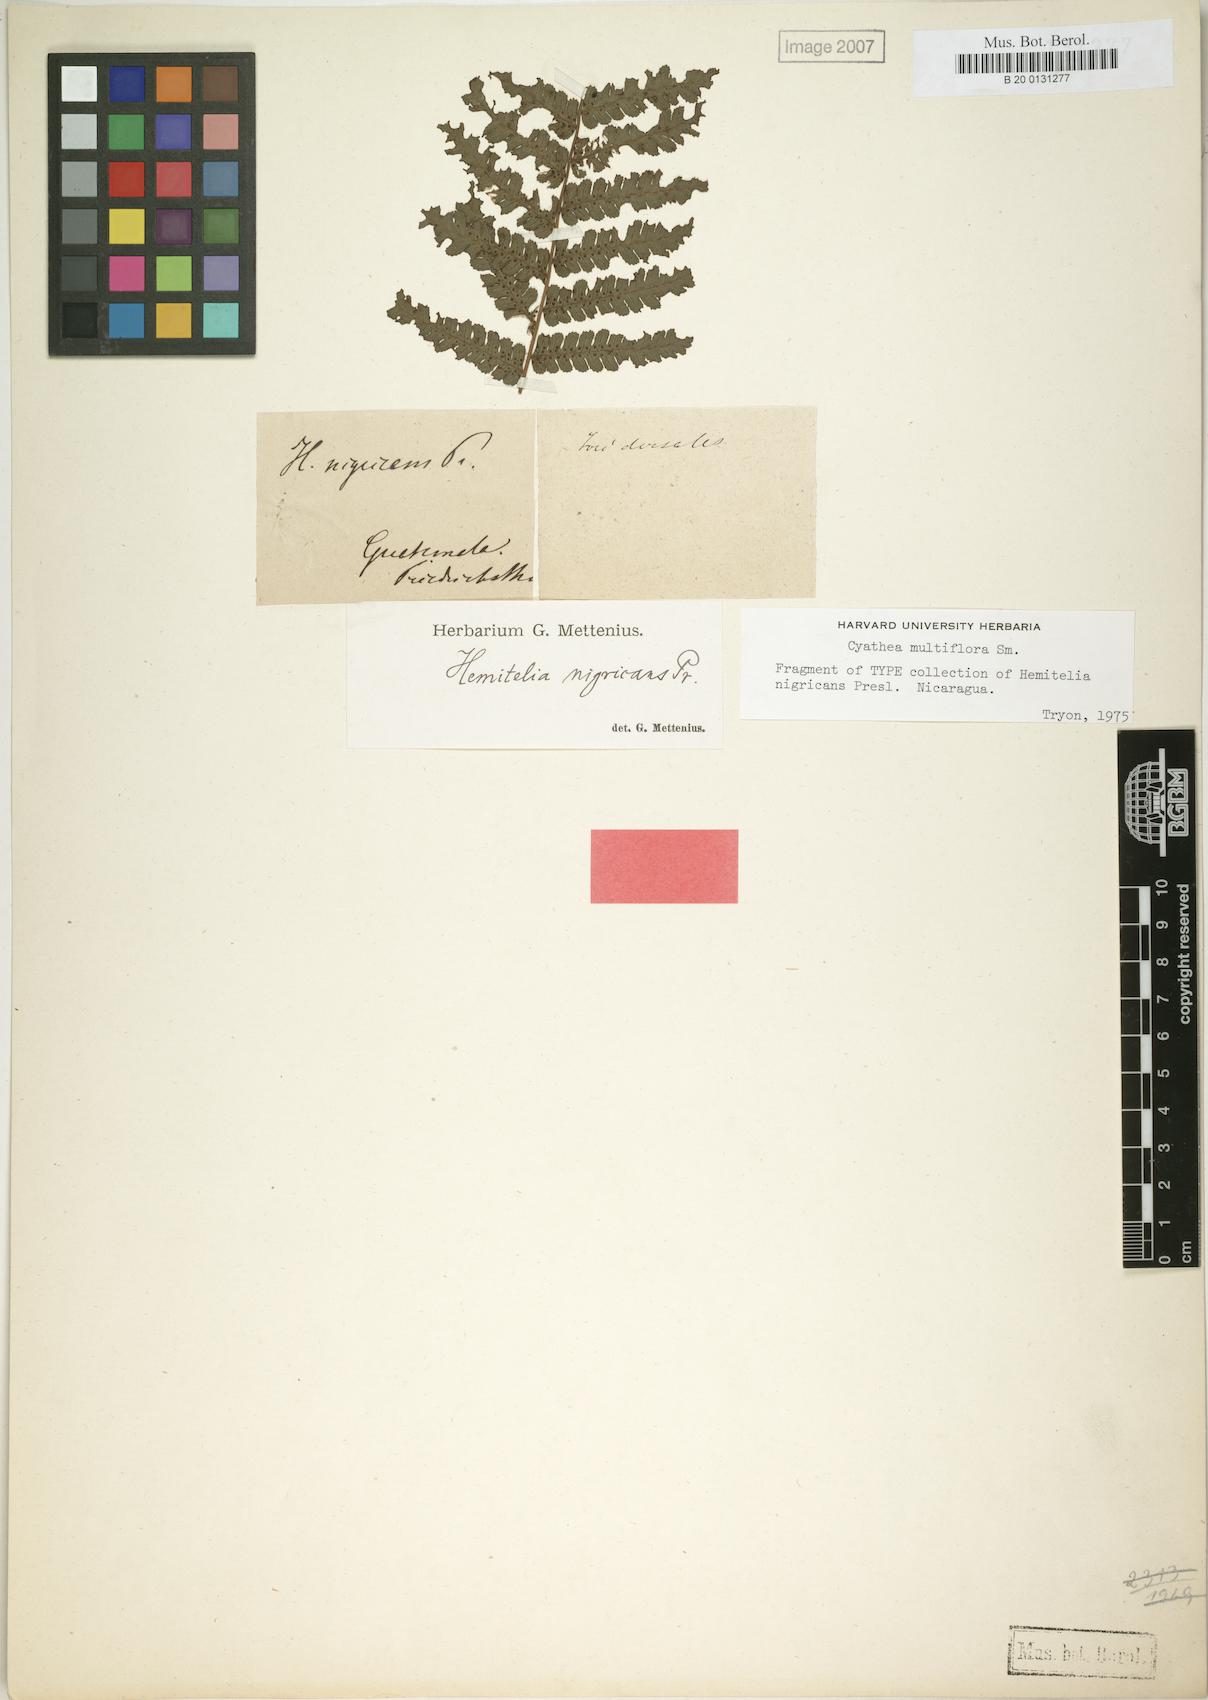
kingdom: Plantae
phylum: Tracheophyta
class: Polypodiopsida
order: Cyatheales
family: Cyatheaceae
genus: Cyathea
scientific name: Cyathea multiflora
